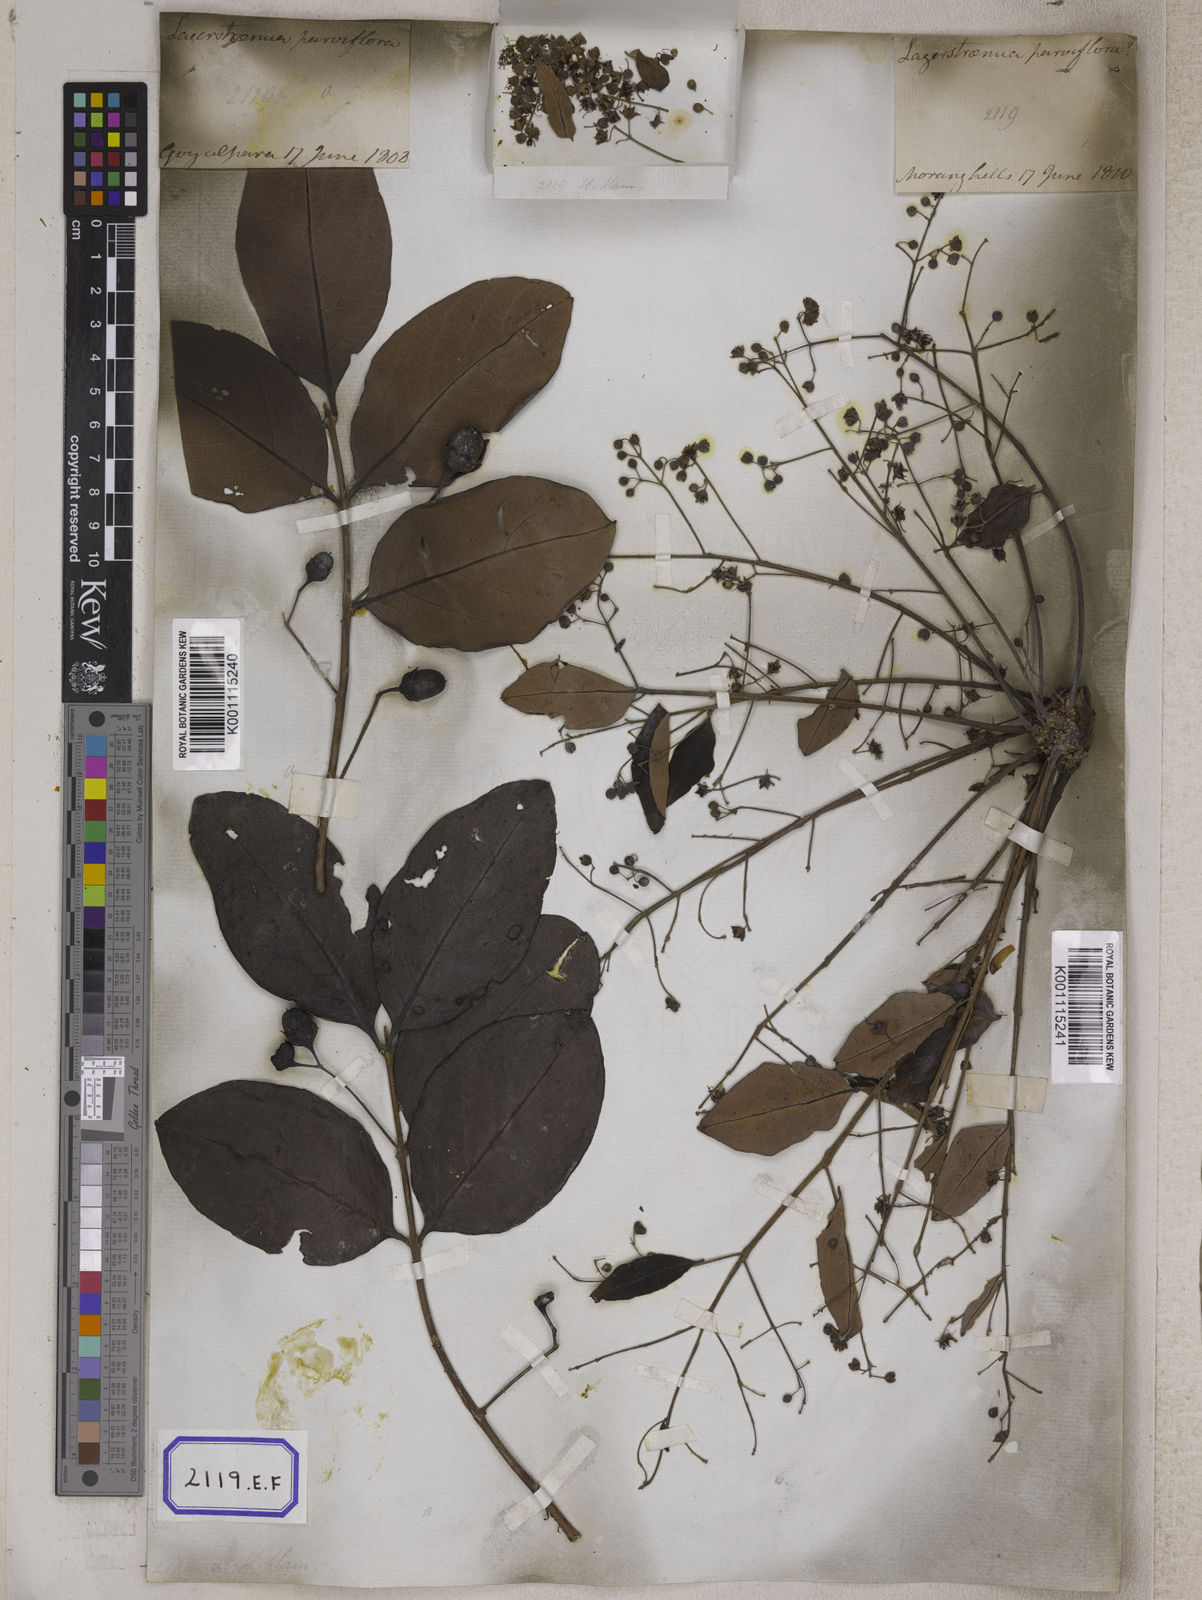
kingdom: Plantae
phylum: Tracheophyta
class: Magnoliopsida
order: Myrtales
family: Lythraceae
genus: Lagerstroemia
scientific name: Lagerstroemia parviflora
